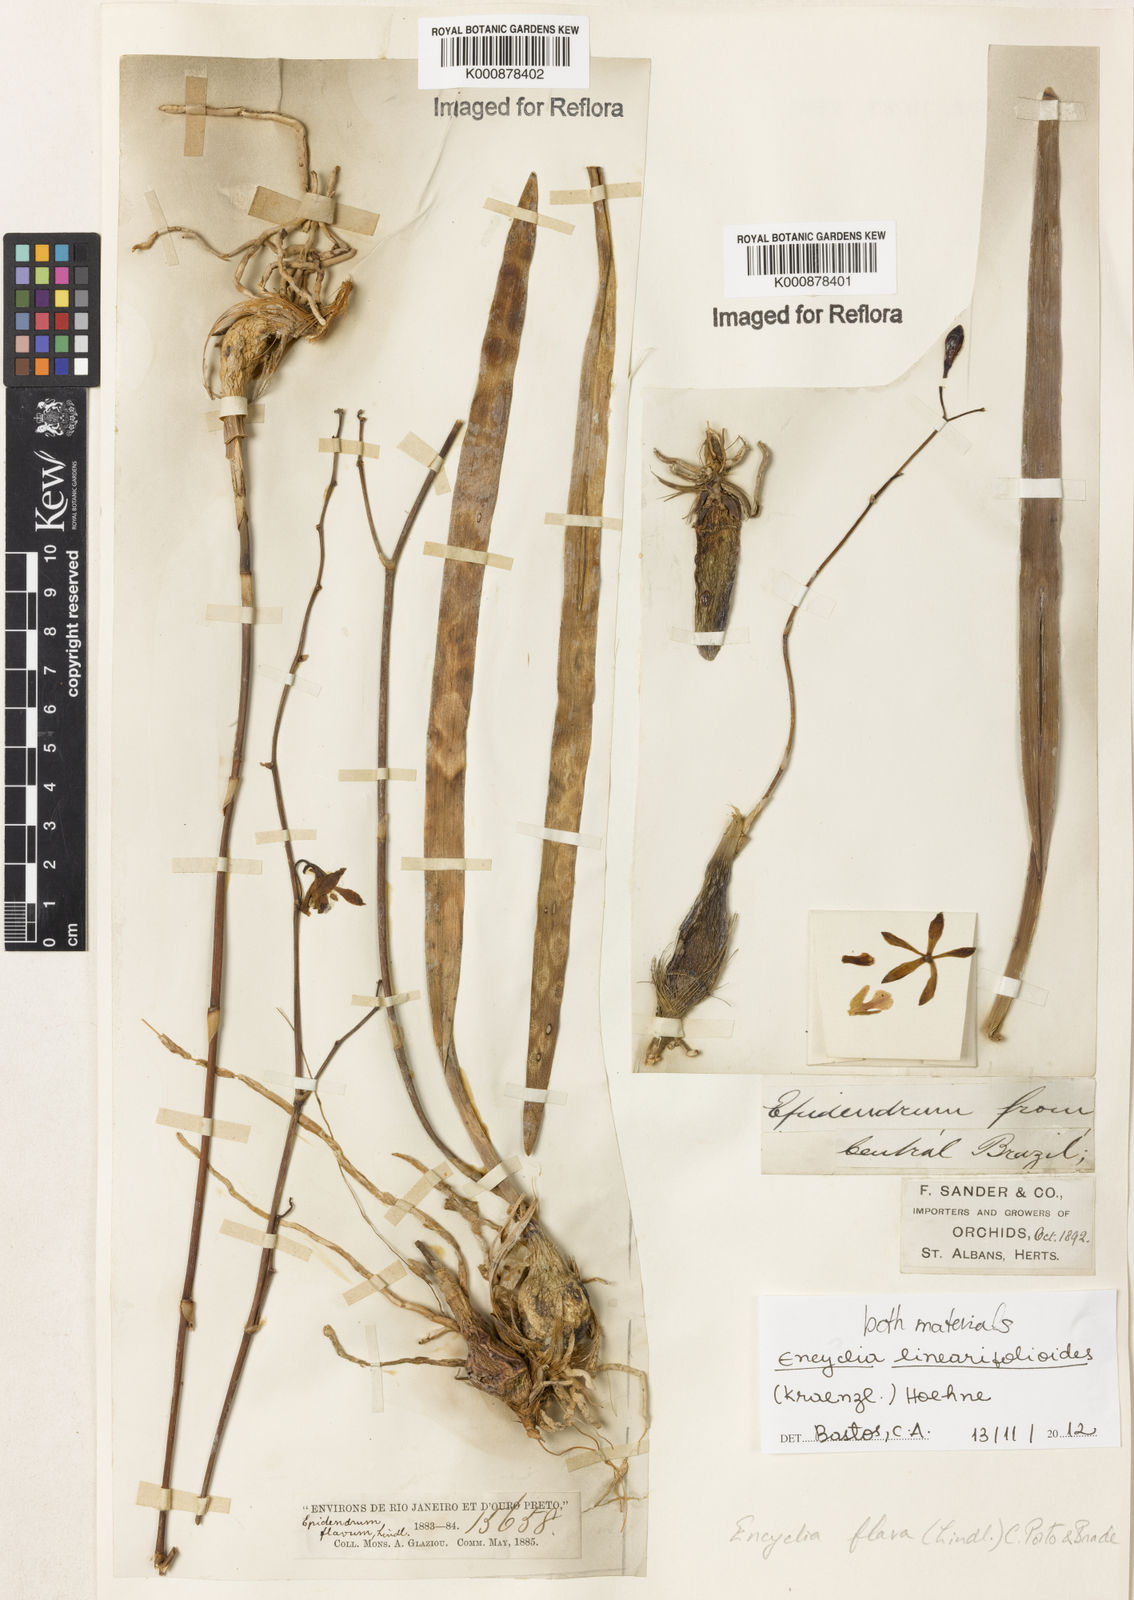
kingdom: Plantae
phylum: Tracheophyta
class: Liliopsida
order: Asparagales
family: Orchidaceae
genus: Encyclia
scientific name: Encyclia linearifolioides
